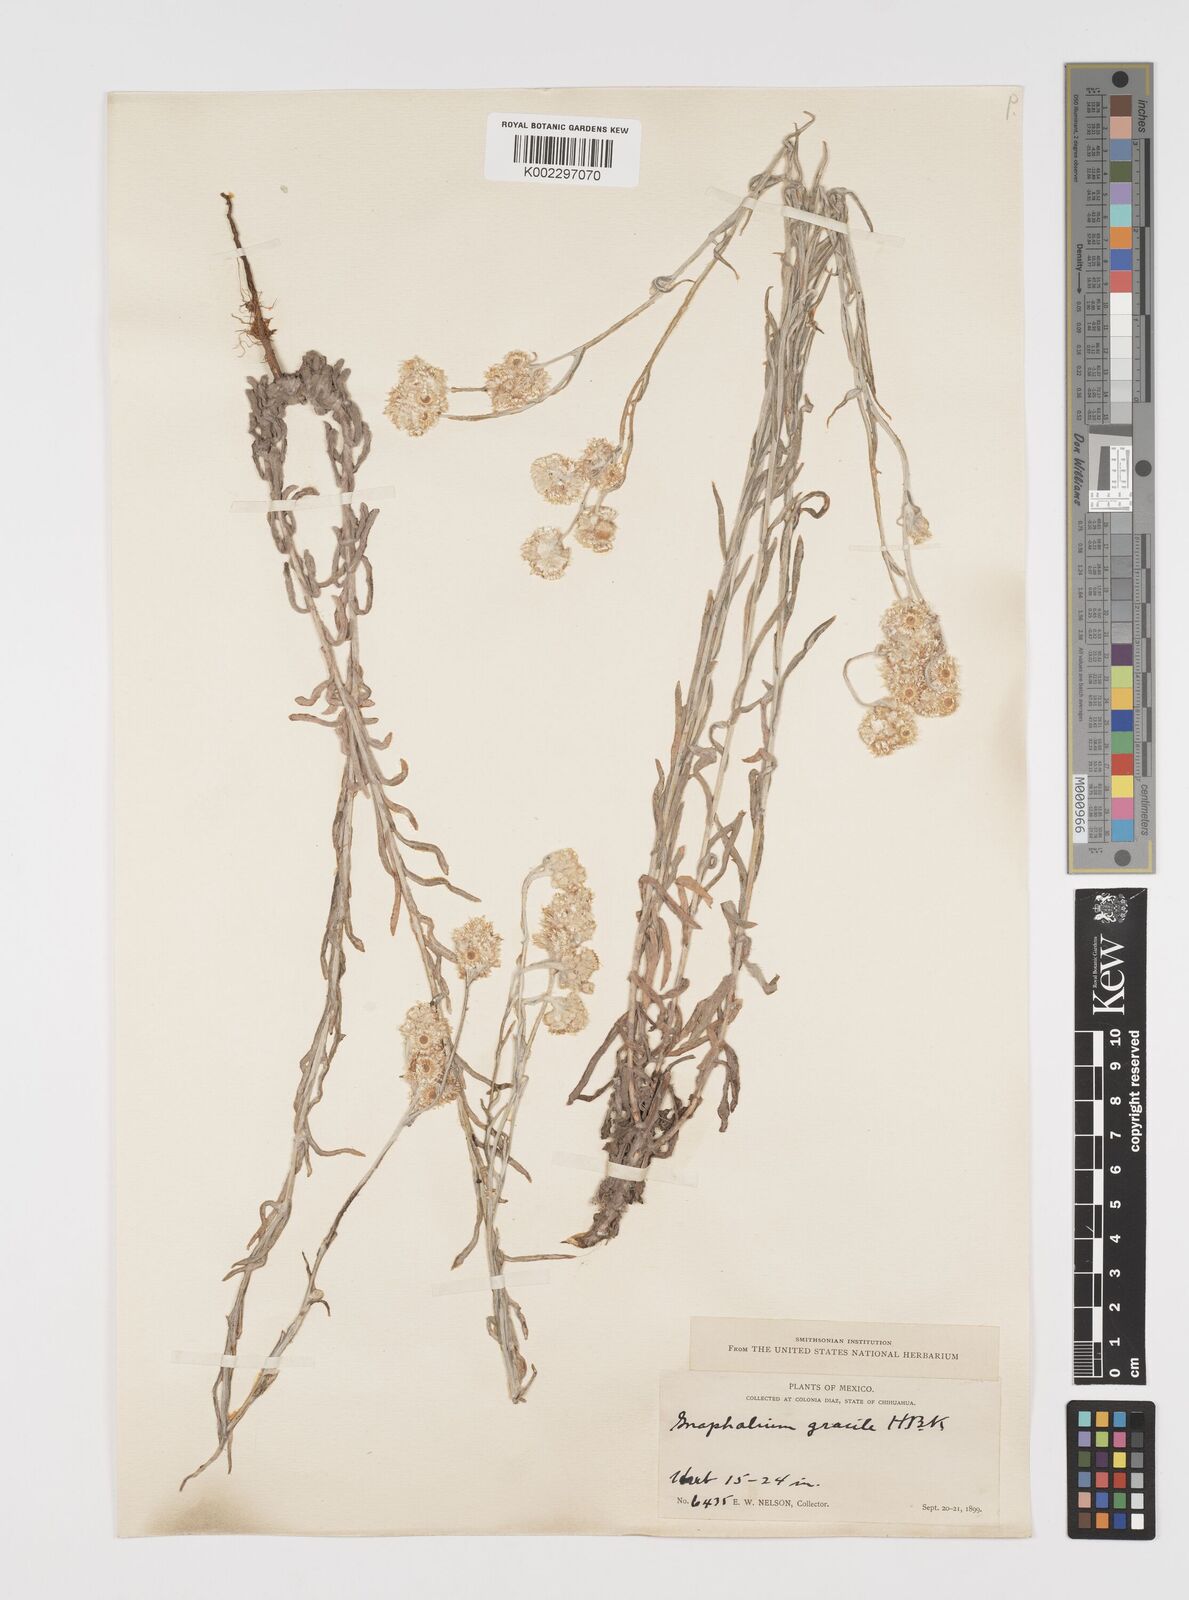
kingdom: Plantae
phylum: Tracheophyta
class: Magnoliopsida
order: Asterales
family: Asteraceae
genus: Pseudognaphalium
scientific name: Pseudognaphalium
